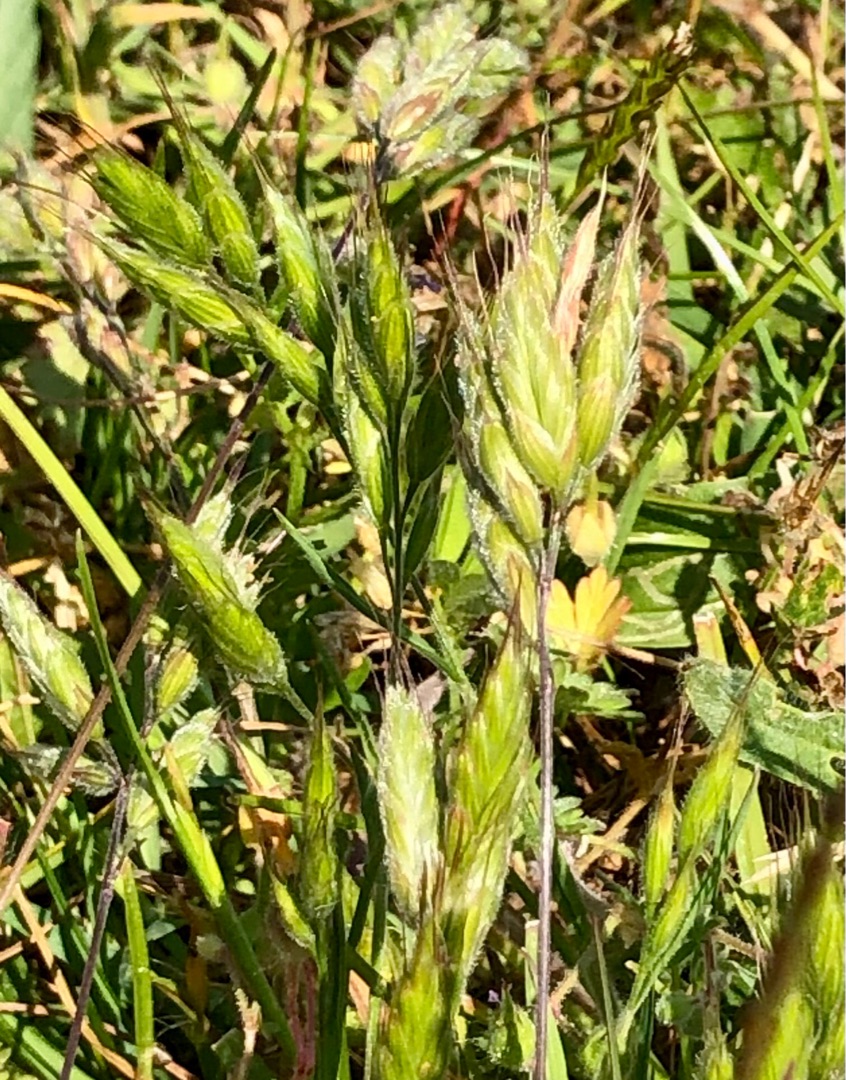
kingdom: Plantae
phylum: Tracheophyta
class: Liliopsida
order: Poales
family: Poaceae
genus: Bromus
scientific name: Bromus hordeaceus
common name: Blød hejre
